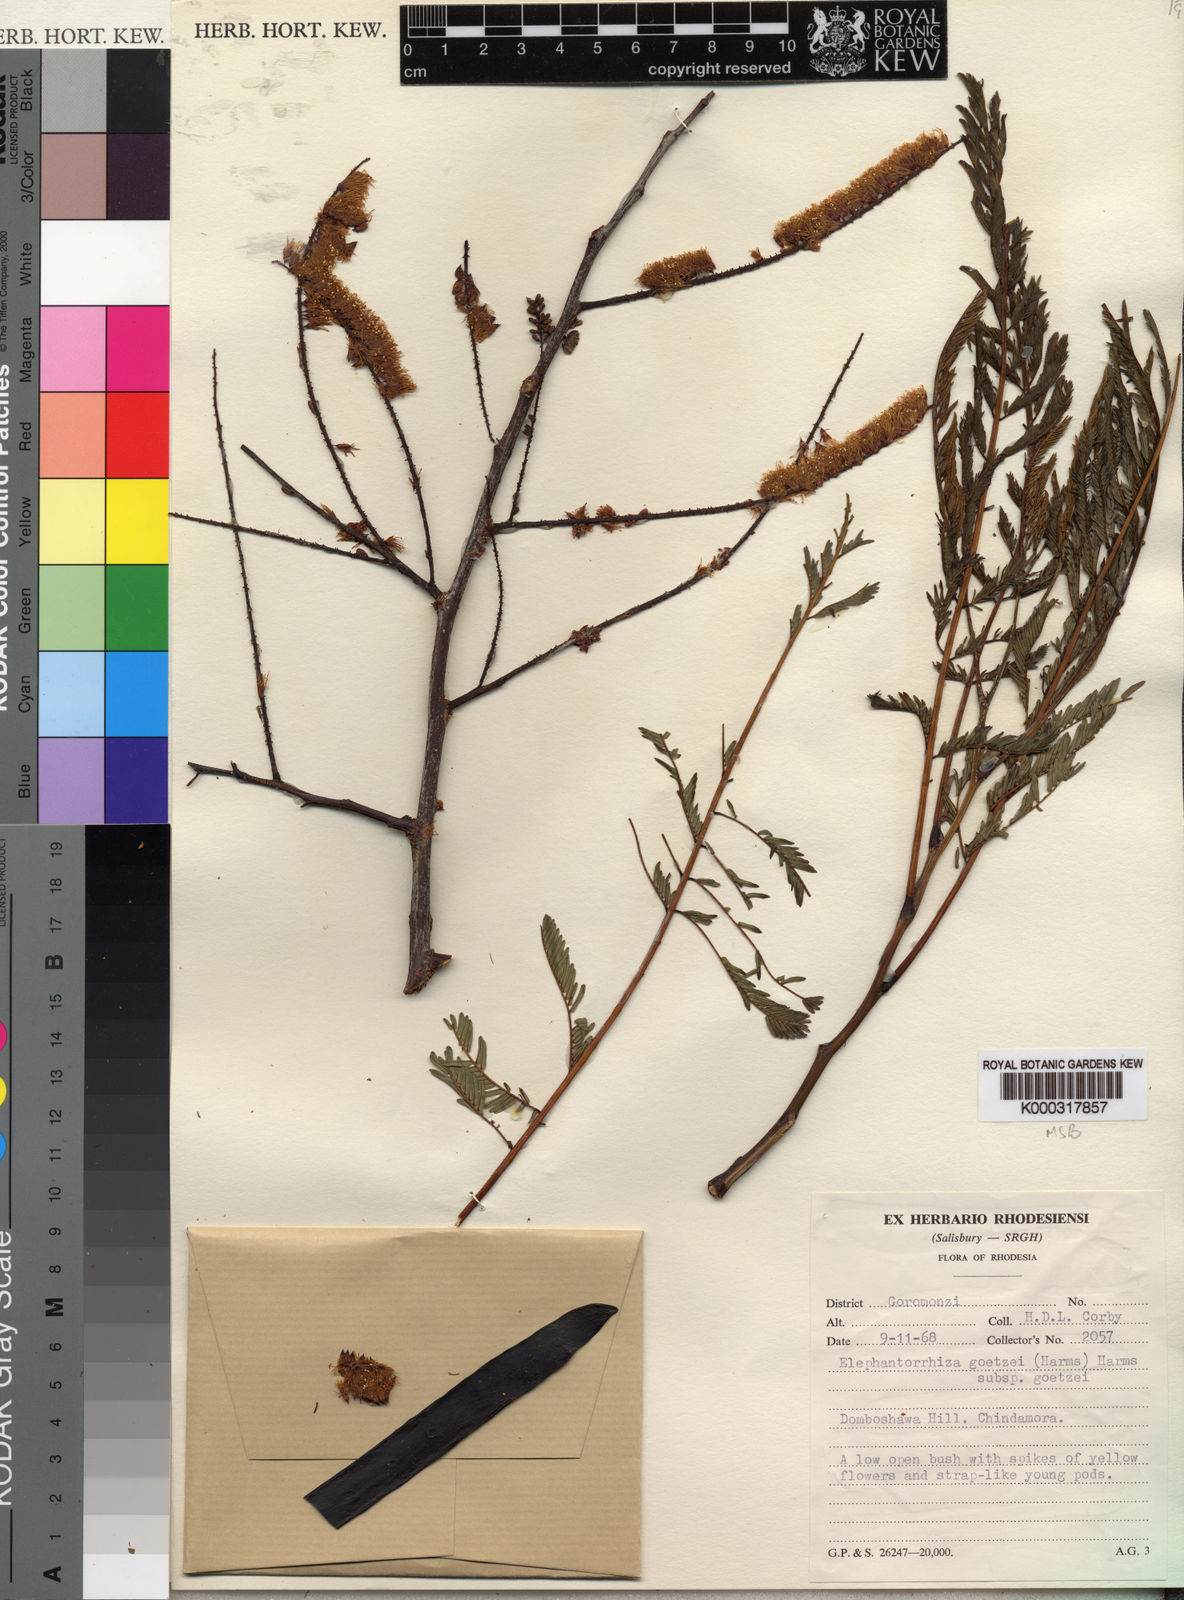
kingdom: Plantae
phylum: Tracheophyta
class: Magnoliopsida
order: Fabales
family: Fabaceae
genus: Elephantorrhiza
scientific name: Elephantorrhiza goetzei
